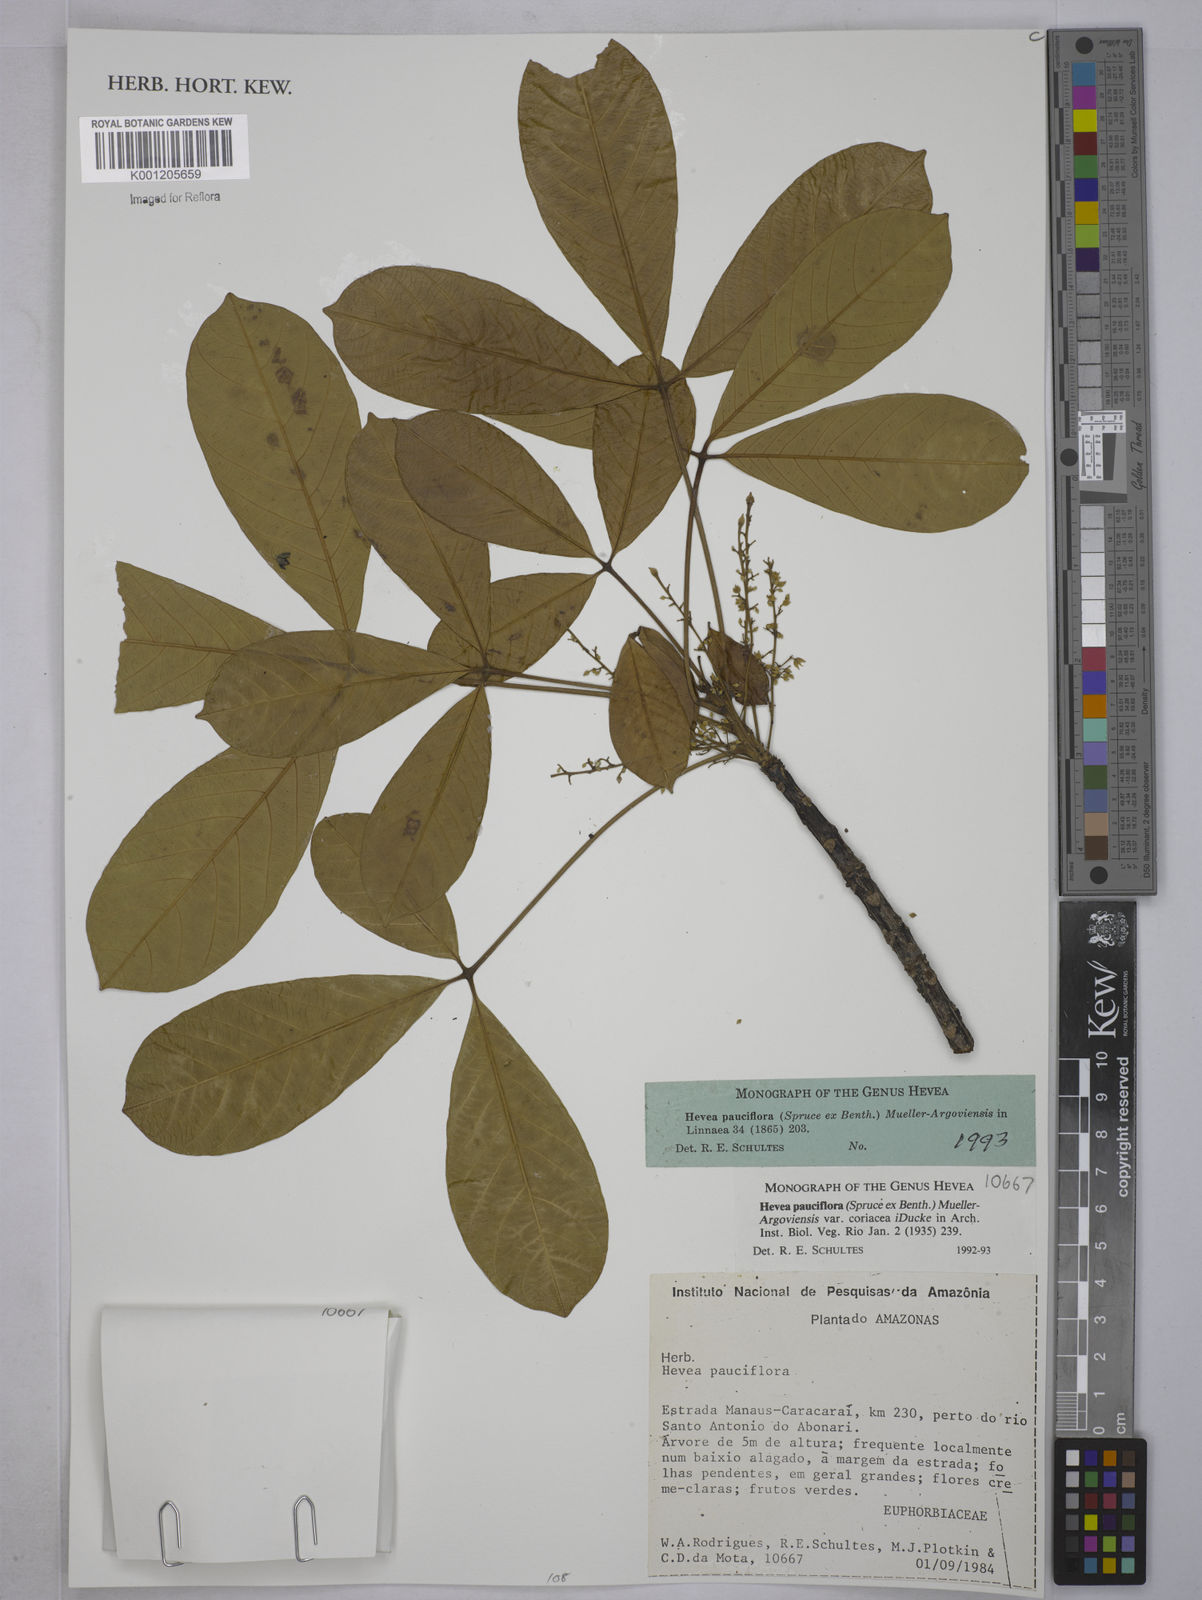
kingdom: Plantae
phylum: Tracheophyta
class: Magnoliopsida
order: Malpighiales
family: Euphorbiaceae
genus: Hevea
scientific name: Hevea
